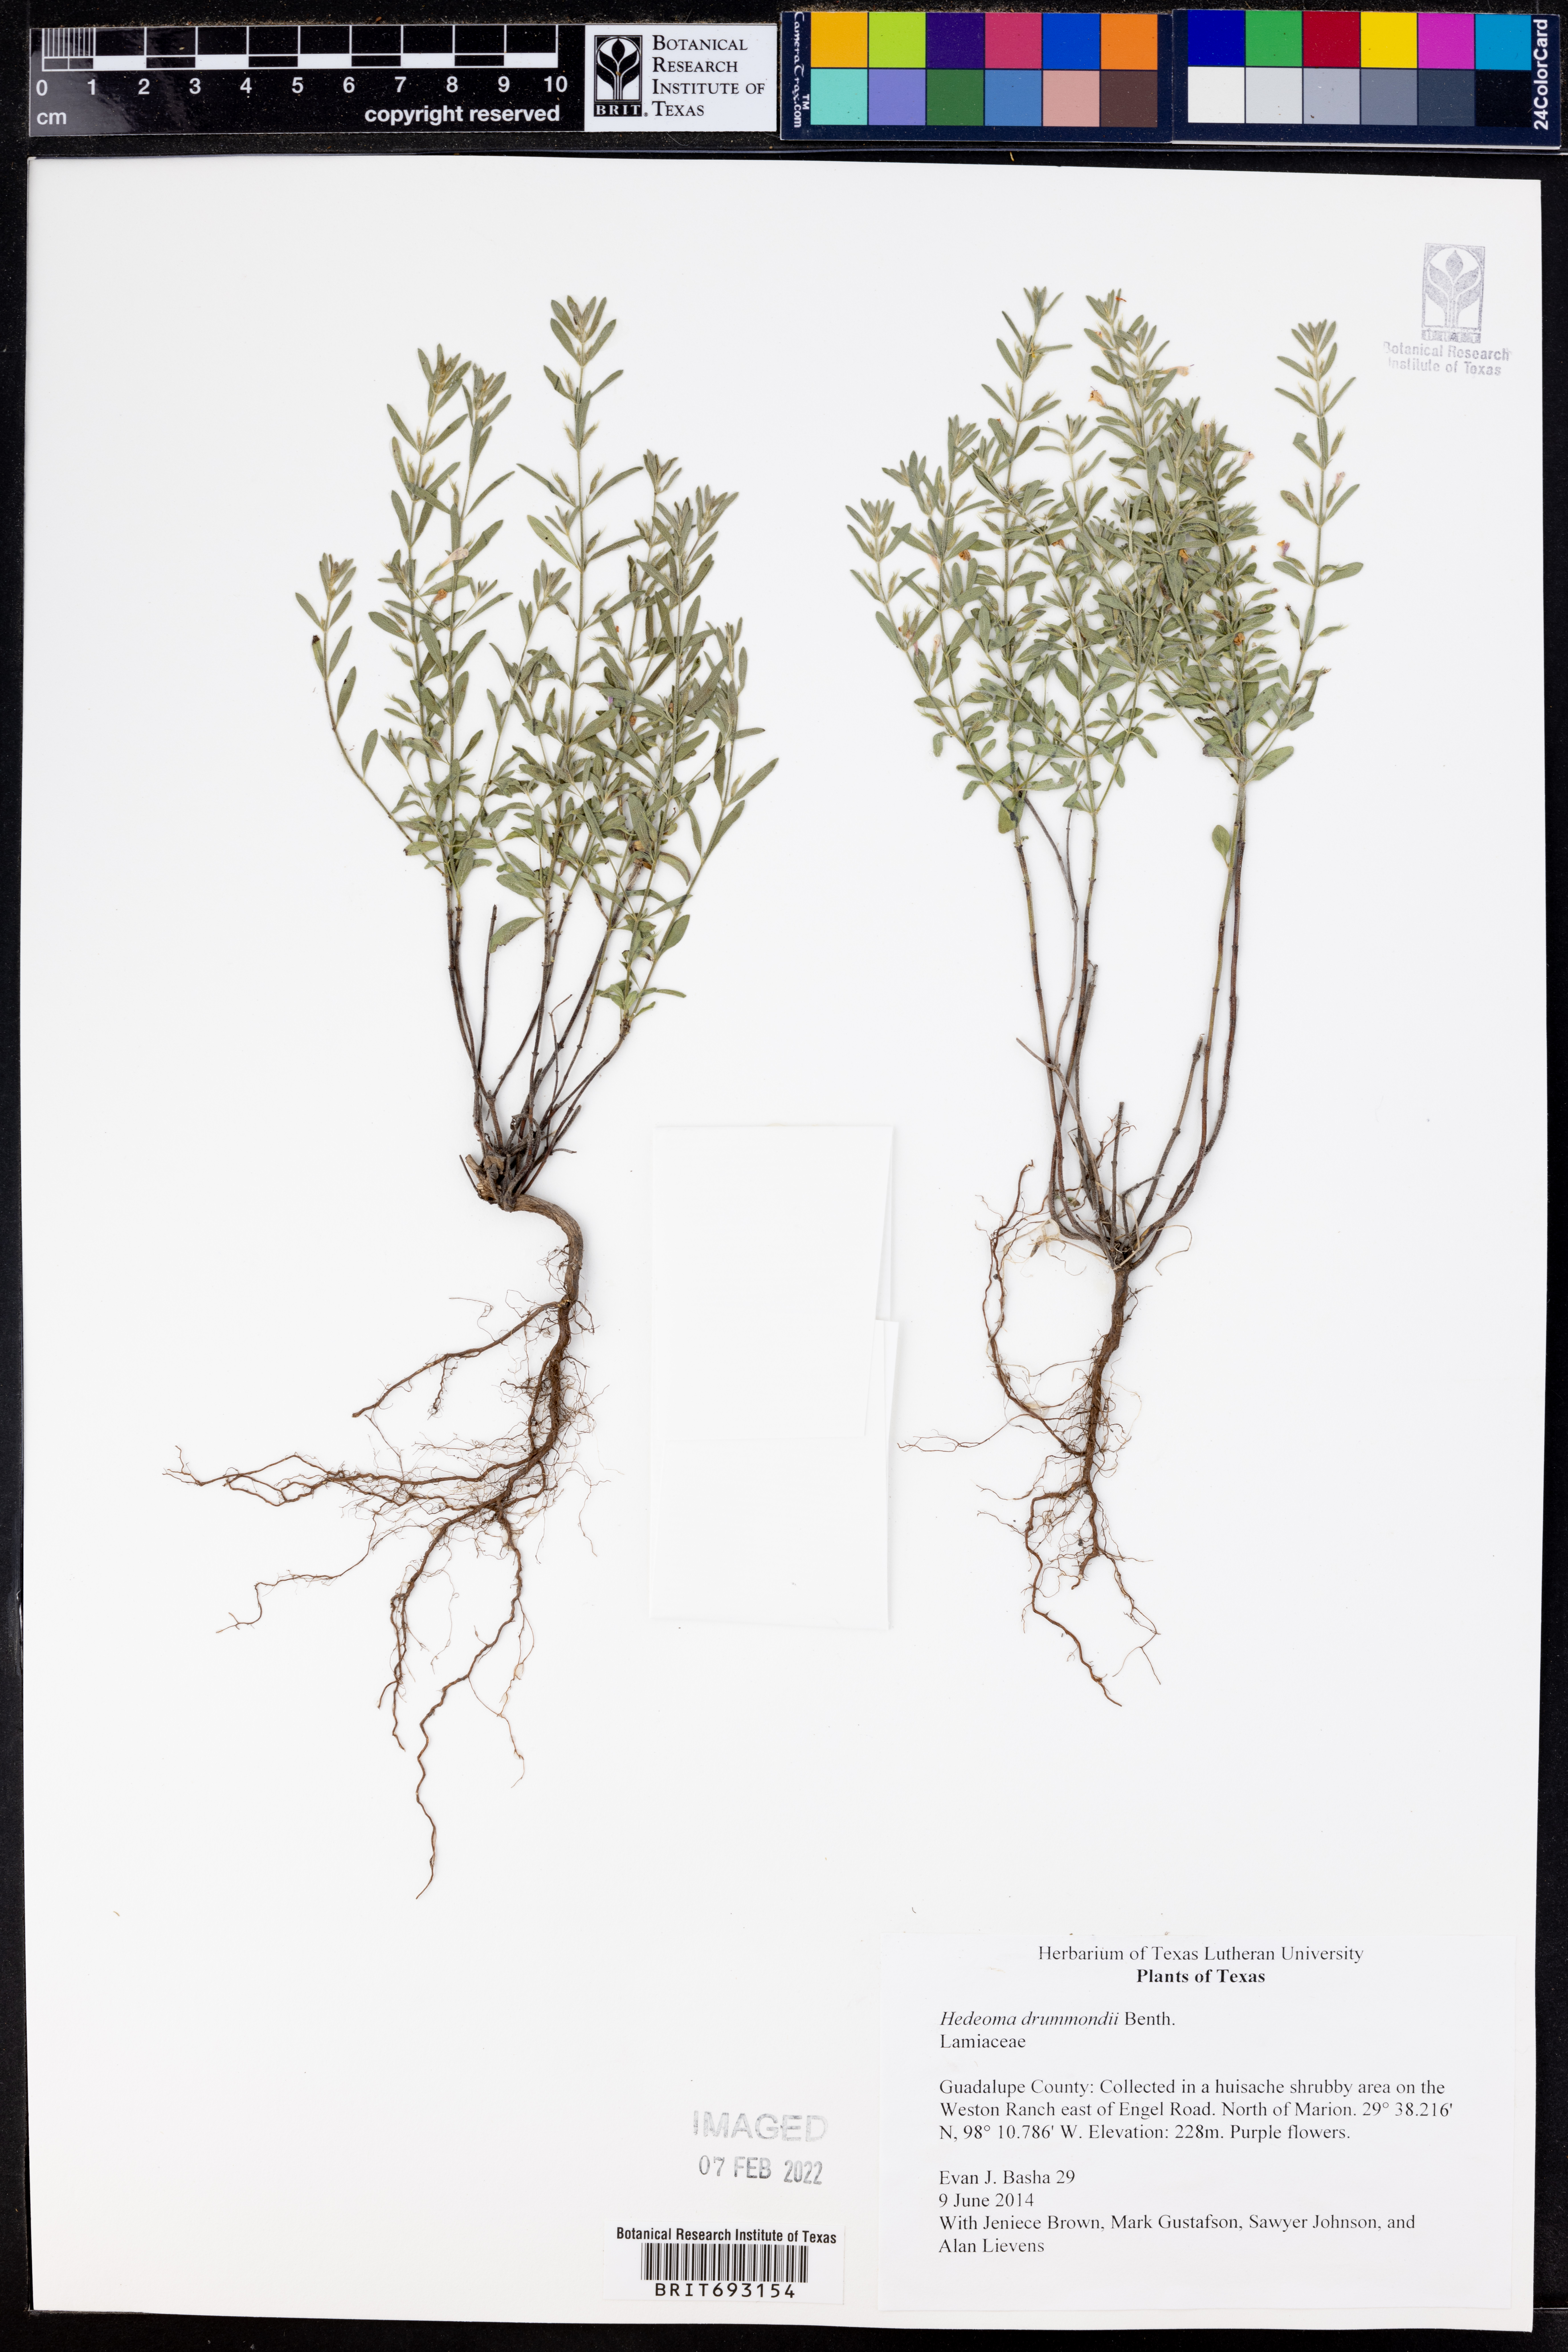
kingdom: Plantae
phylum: Tracheophyta
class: Magnoliopsida
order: Lamiales
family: Lamiaceae
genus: Hedeoma
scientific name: Hedeoma drummondii
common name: New mexico pennyroyal
